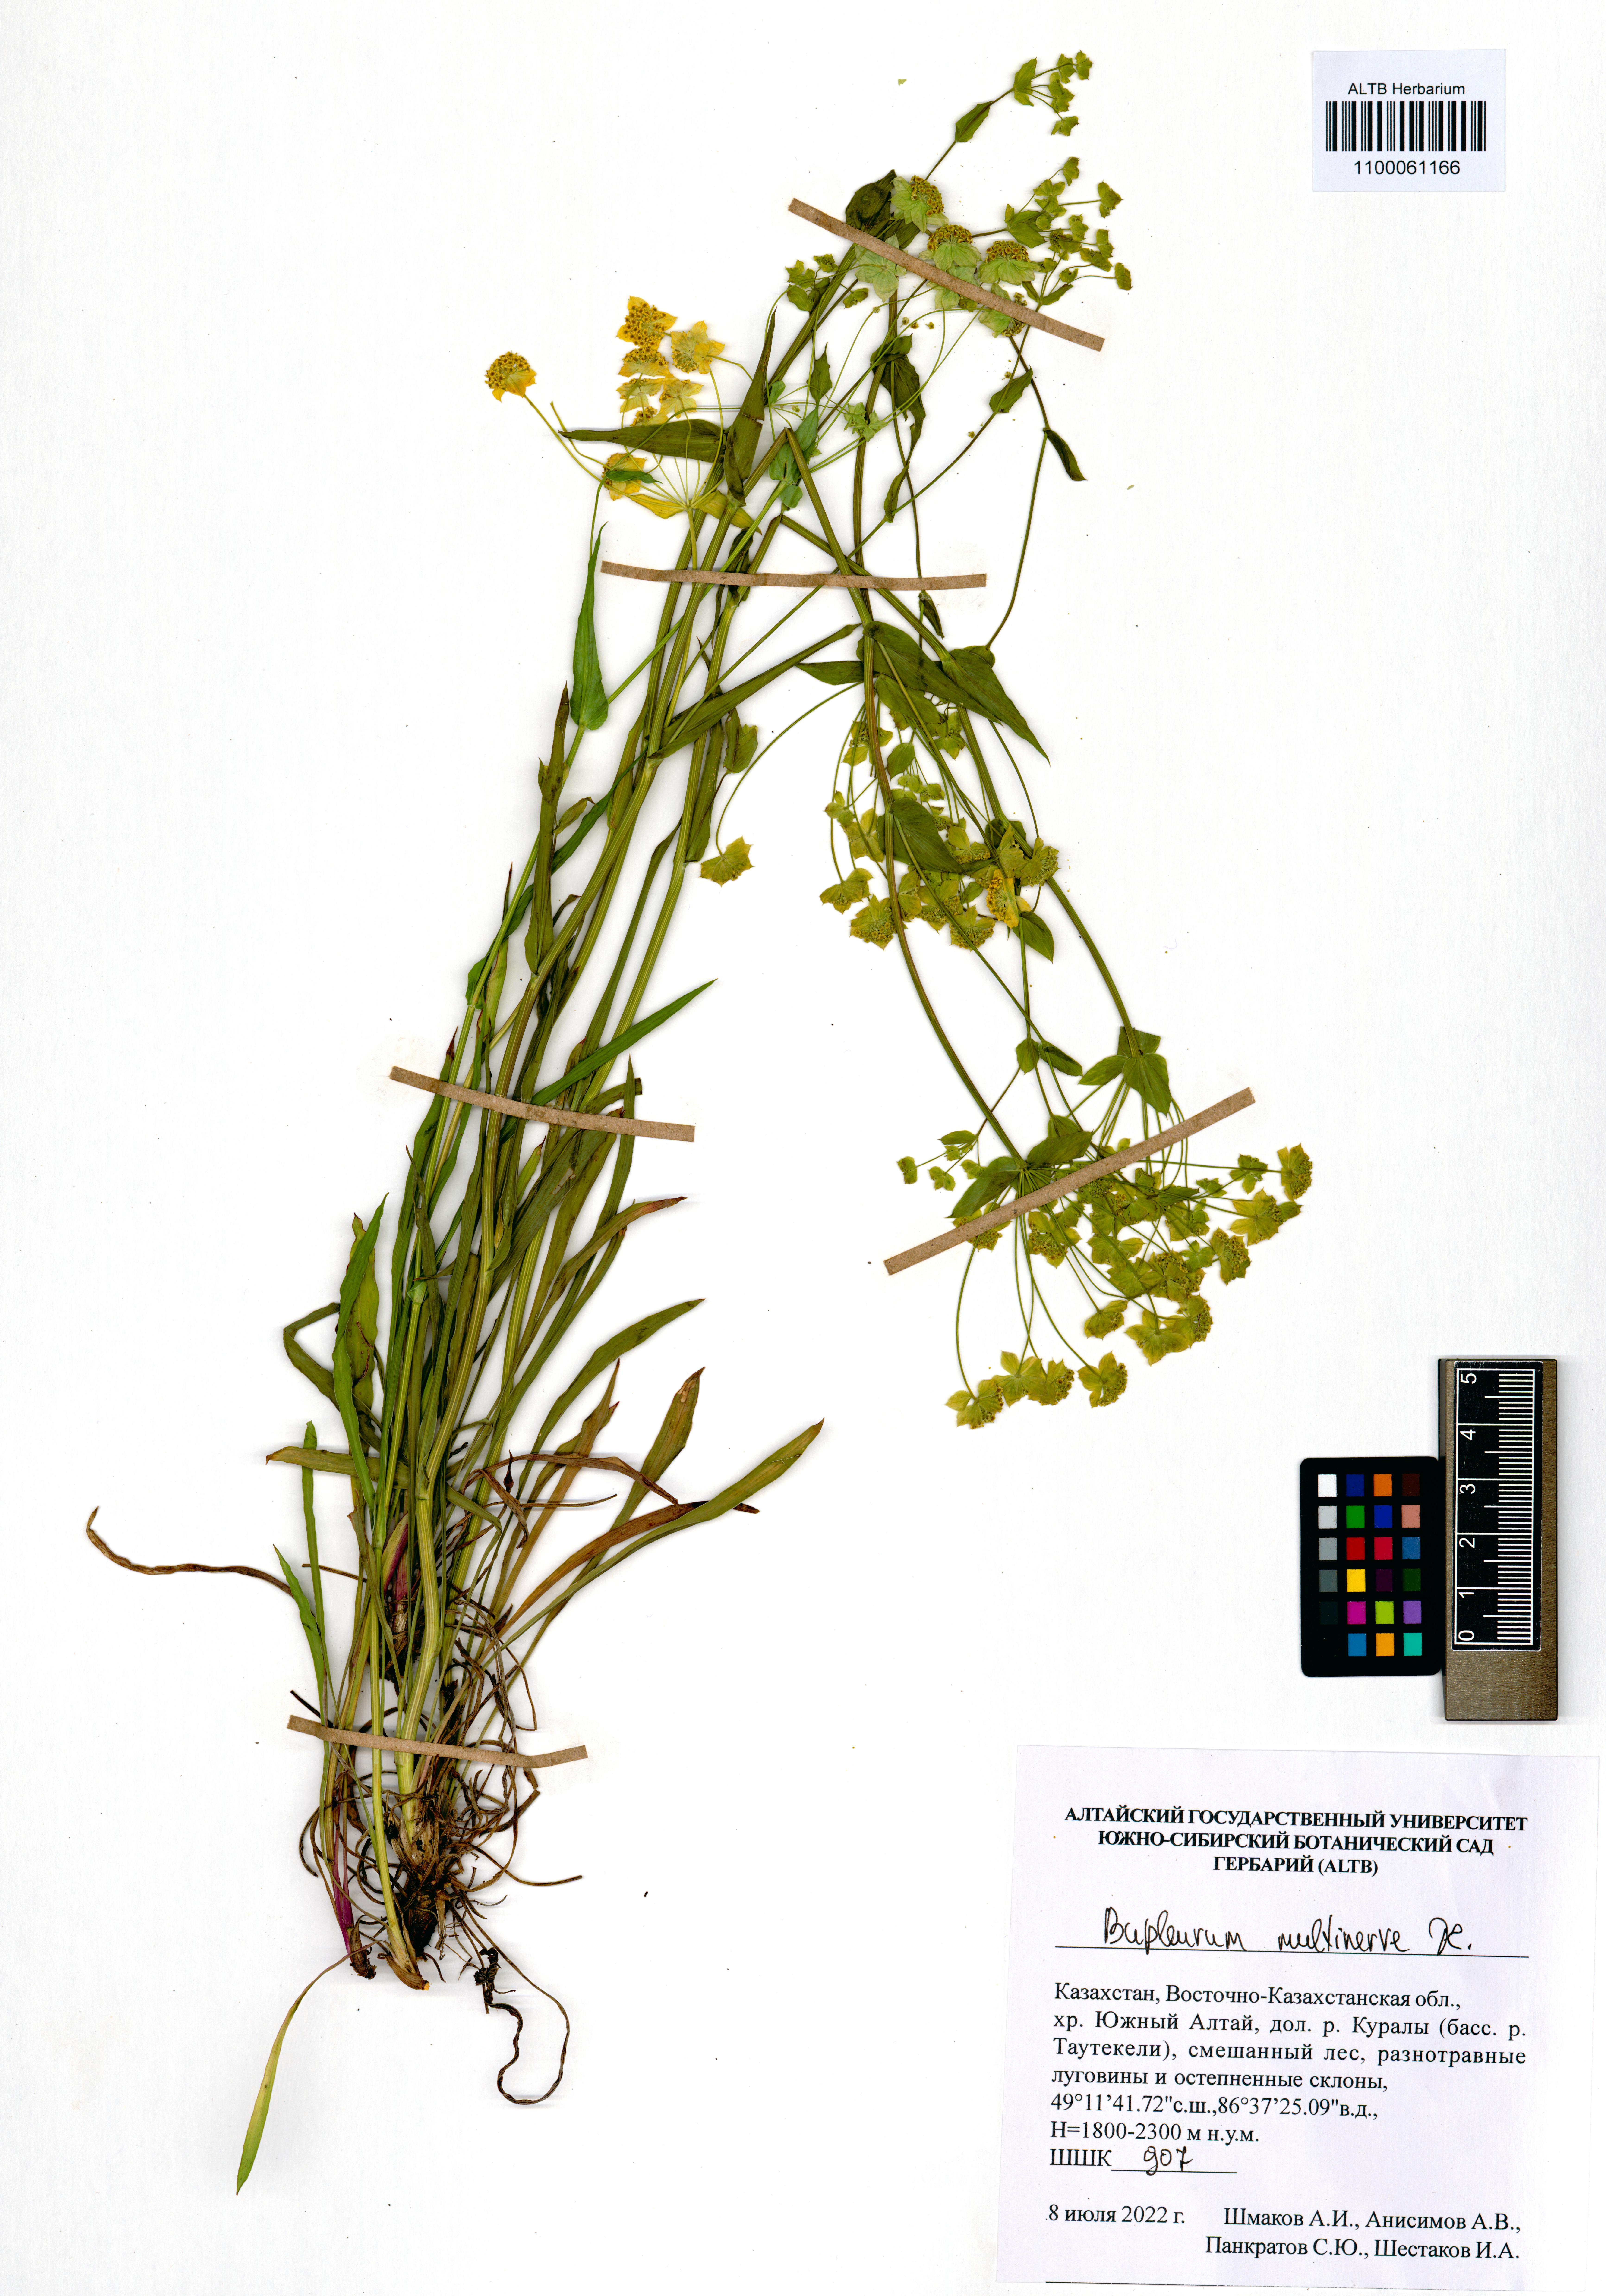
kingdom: Plantae
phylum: Tracheophyta
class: Magnoliopsida
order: Apiales
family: Apiaceae
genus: Bupleurum
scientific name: Bupleurum multinerve
